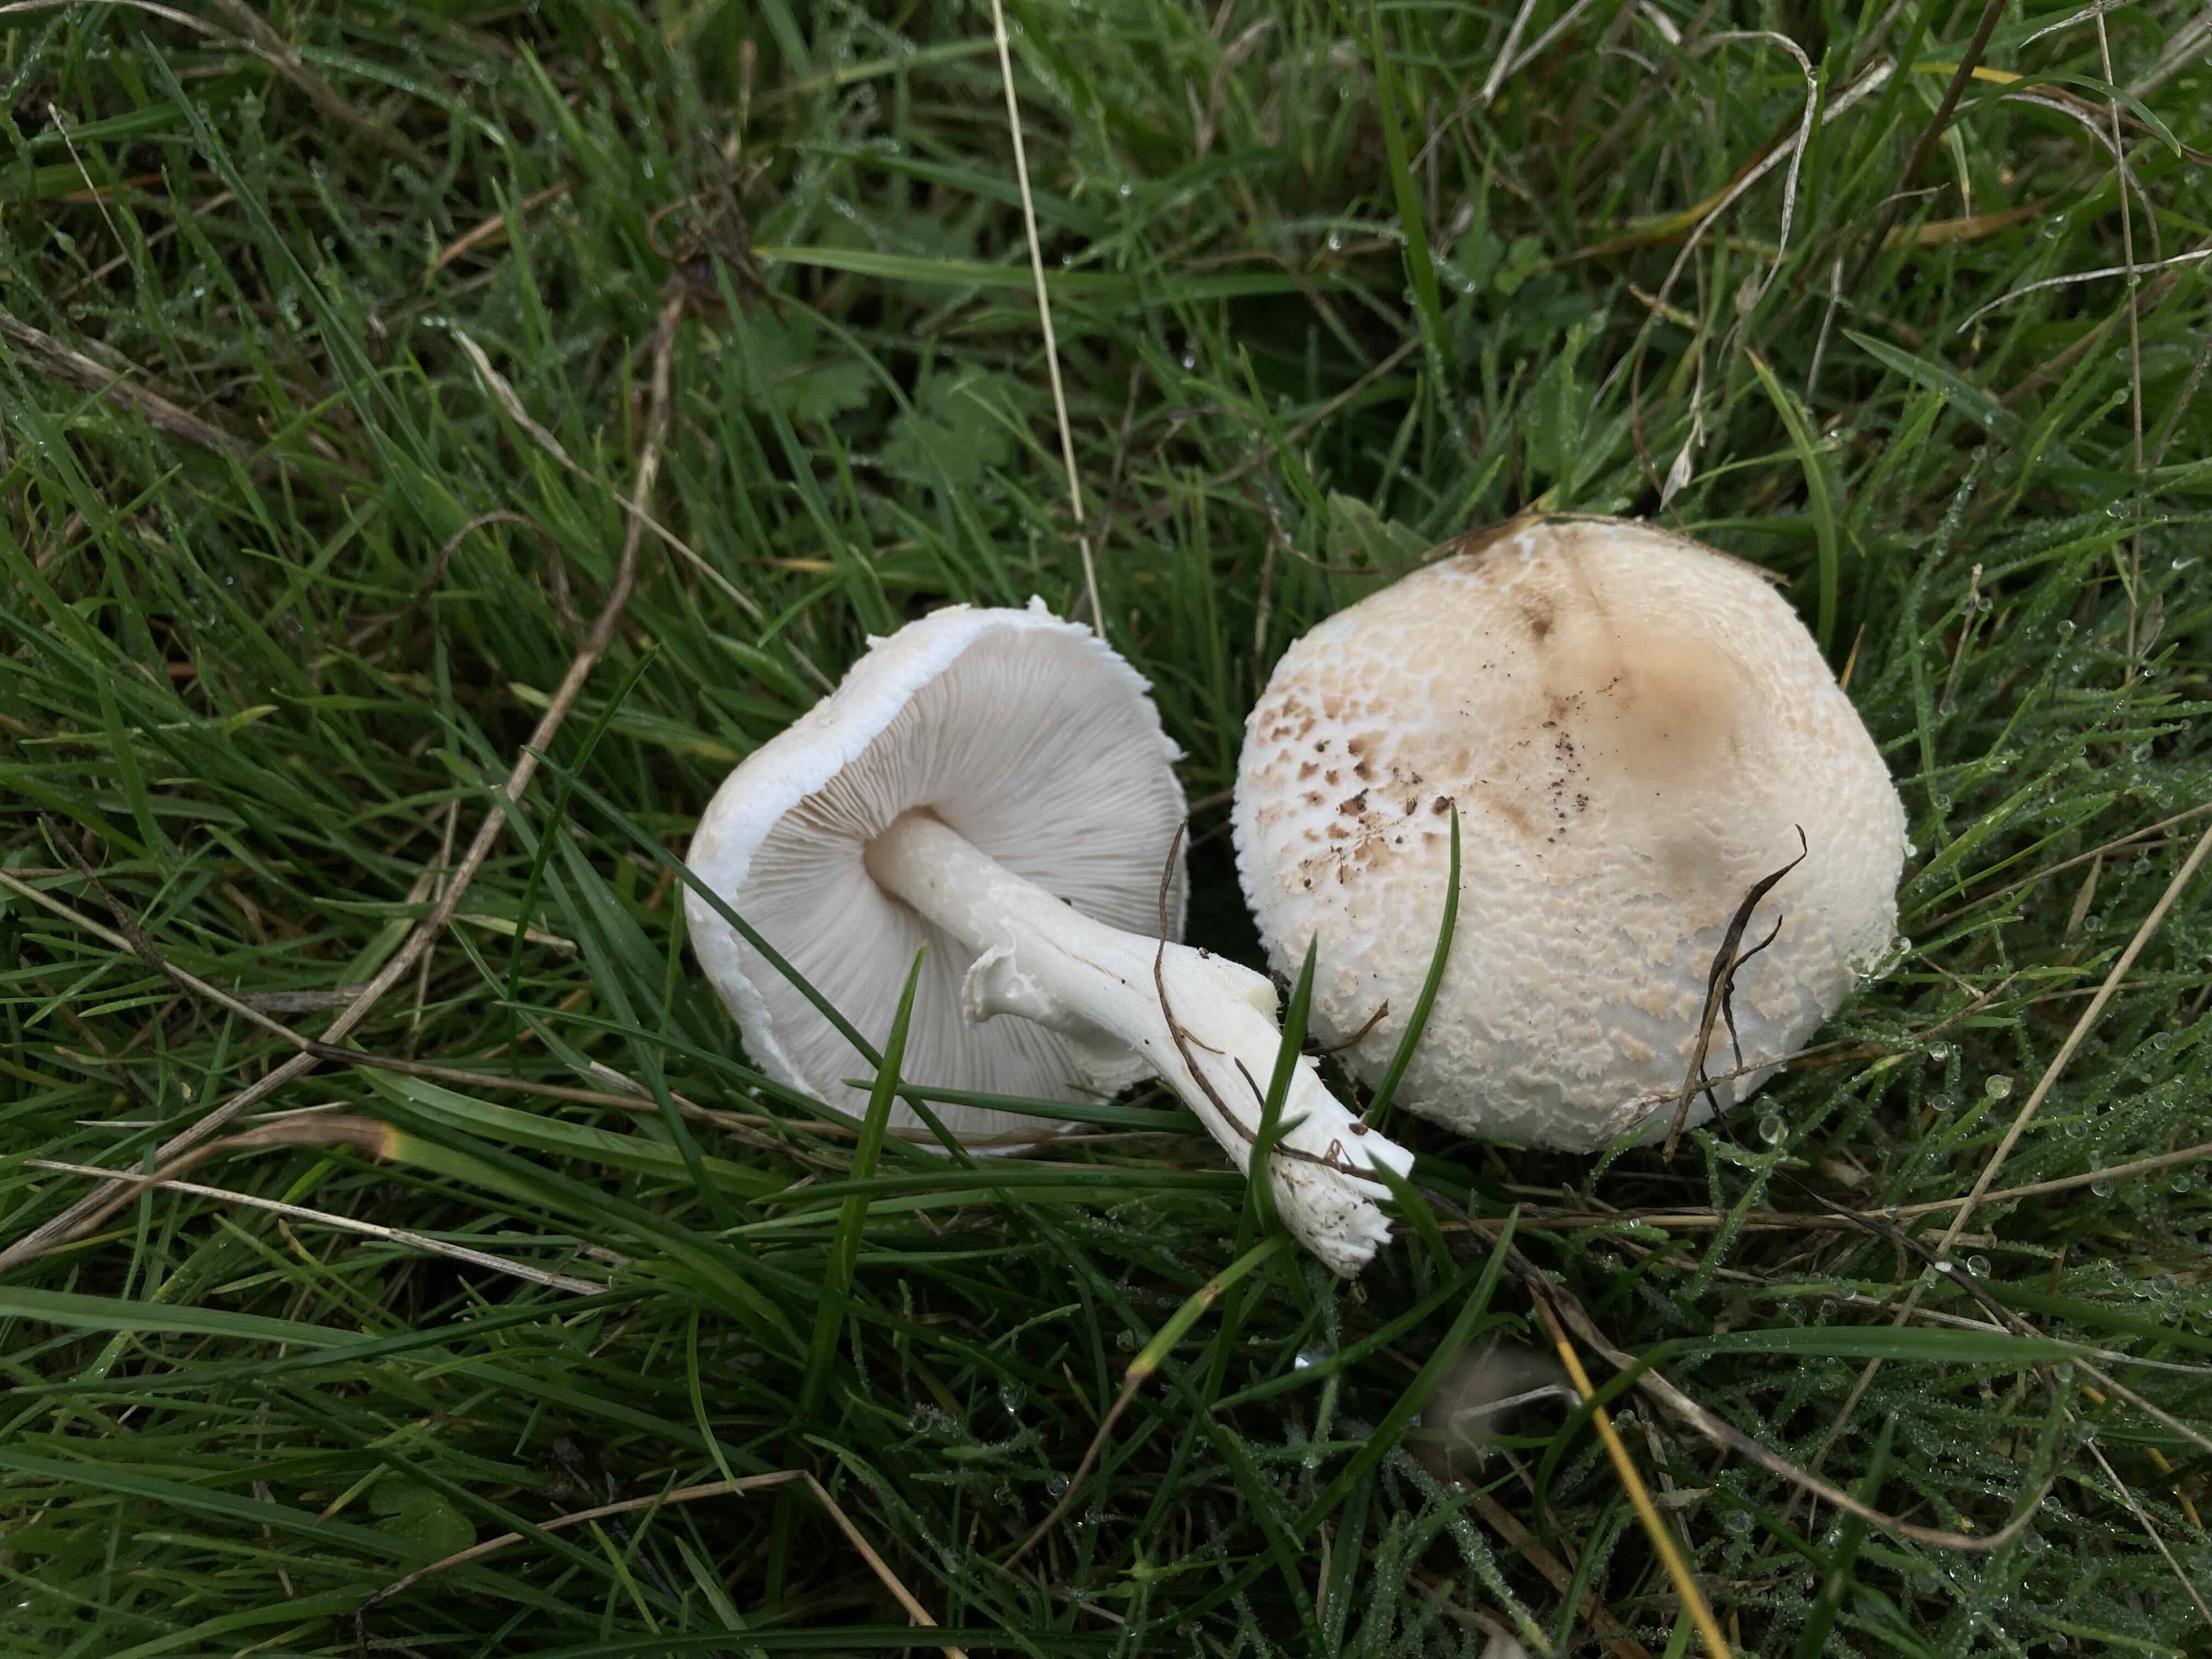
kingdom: Fungi
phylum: Basidiomycota
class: Agaricomycetes
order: Agaricales
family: Agaricaceae
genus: Macrolepiota
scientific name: Macrolepiota excoriata
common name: mark-kæmpeparasolhat
